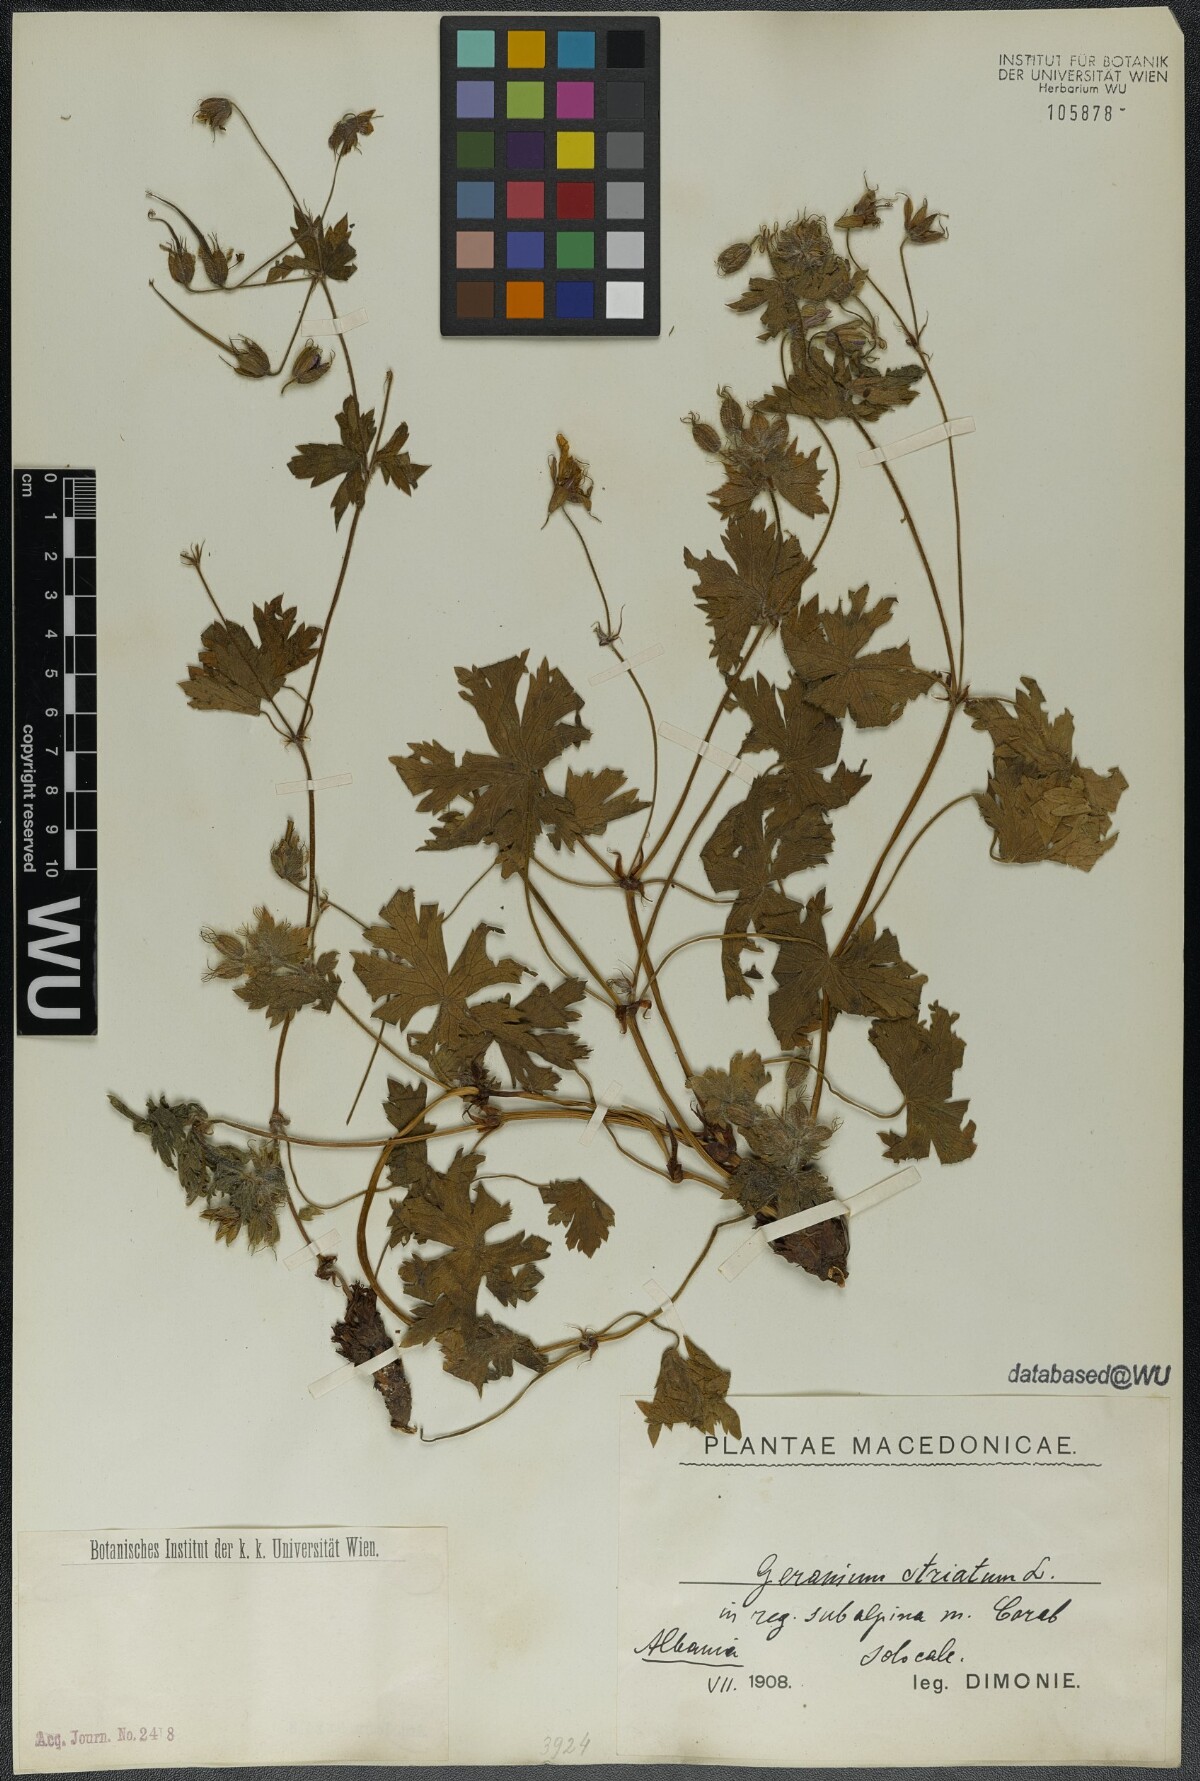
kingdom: Plantae
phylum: Tracheophyta
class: Magnoliopsida
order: Geraniales
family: Geraniaceae
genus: Geranium
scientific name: Geranium versicolor
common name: Pencilled crane's-bill
